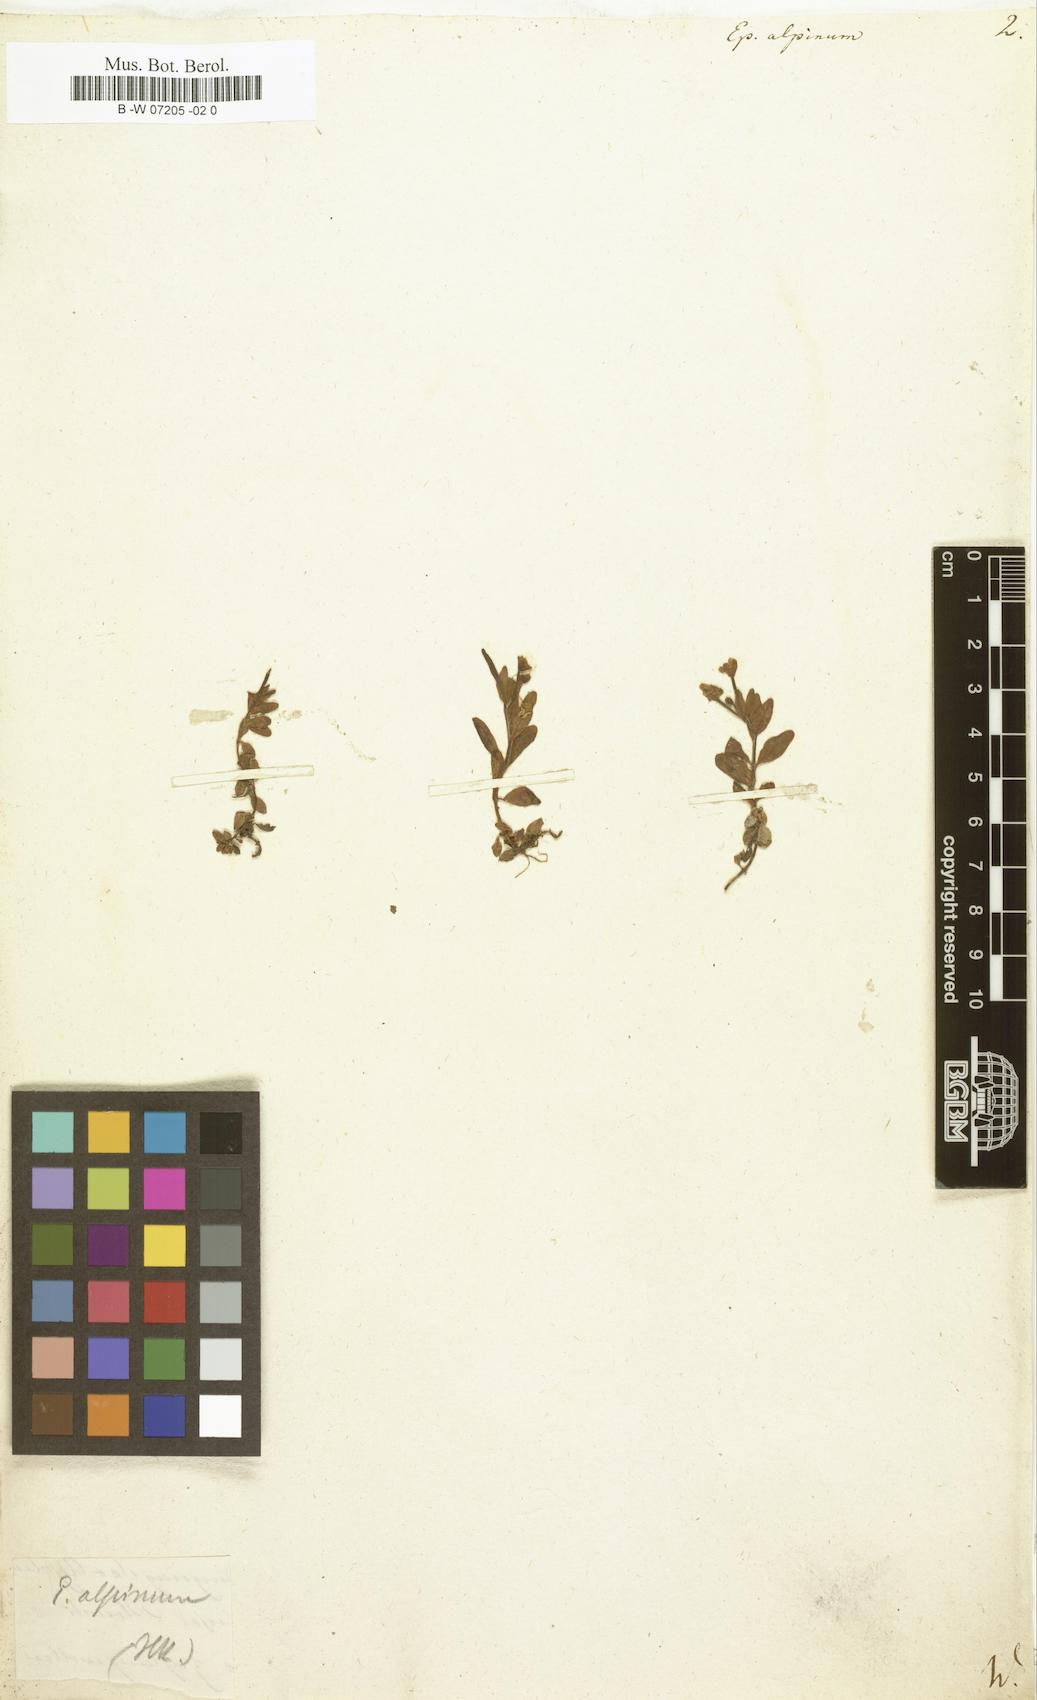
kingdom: Plantae
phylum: Tracheophyta
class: Magnoliopsida
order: Myrtales
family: Onagraceae
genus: Epilobium
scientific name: Epilobium alpinum
